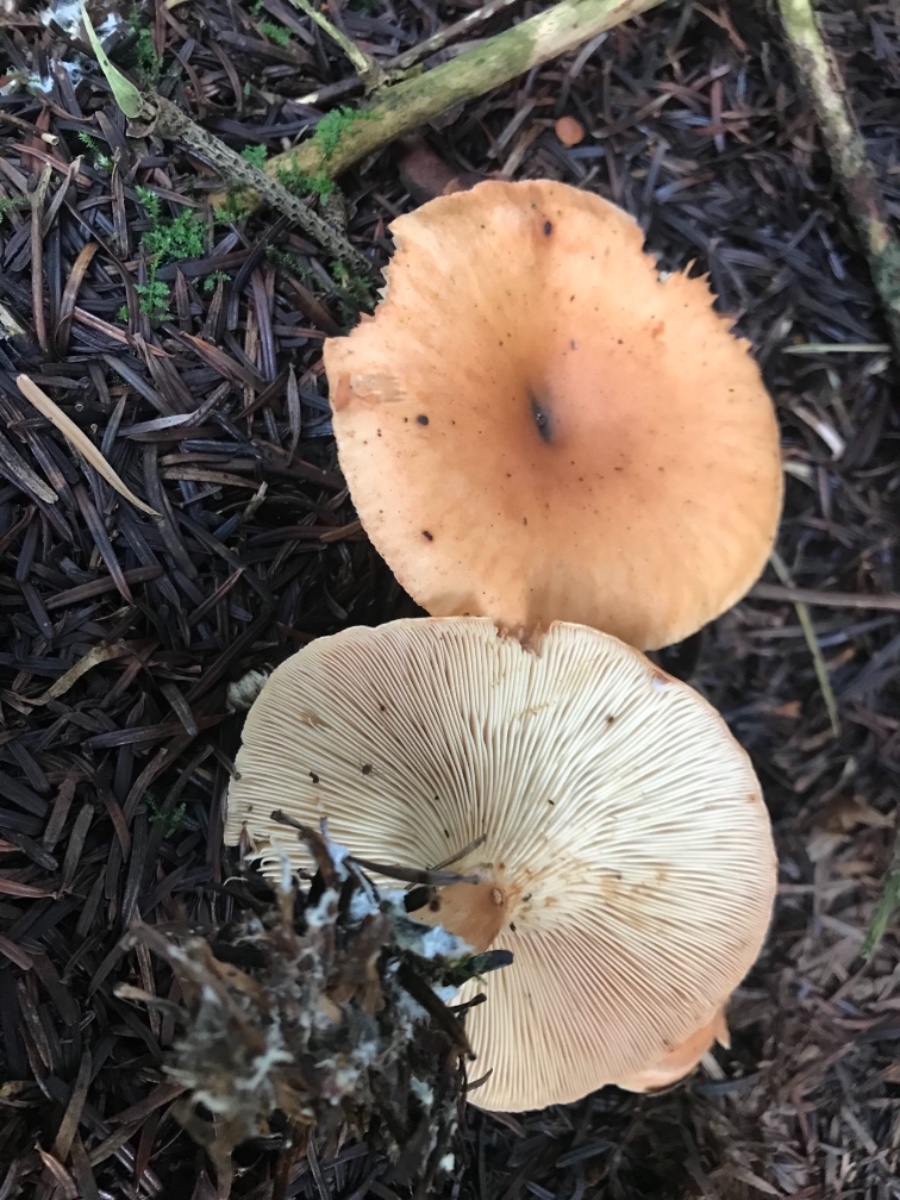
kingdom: Fungi
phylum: Basidiomycota
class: Agaricomycetes
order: Agaricales
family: Tricholomataceae
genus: Paralepista
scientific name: Paralepista flaccida
